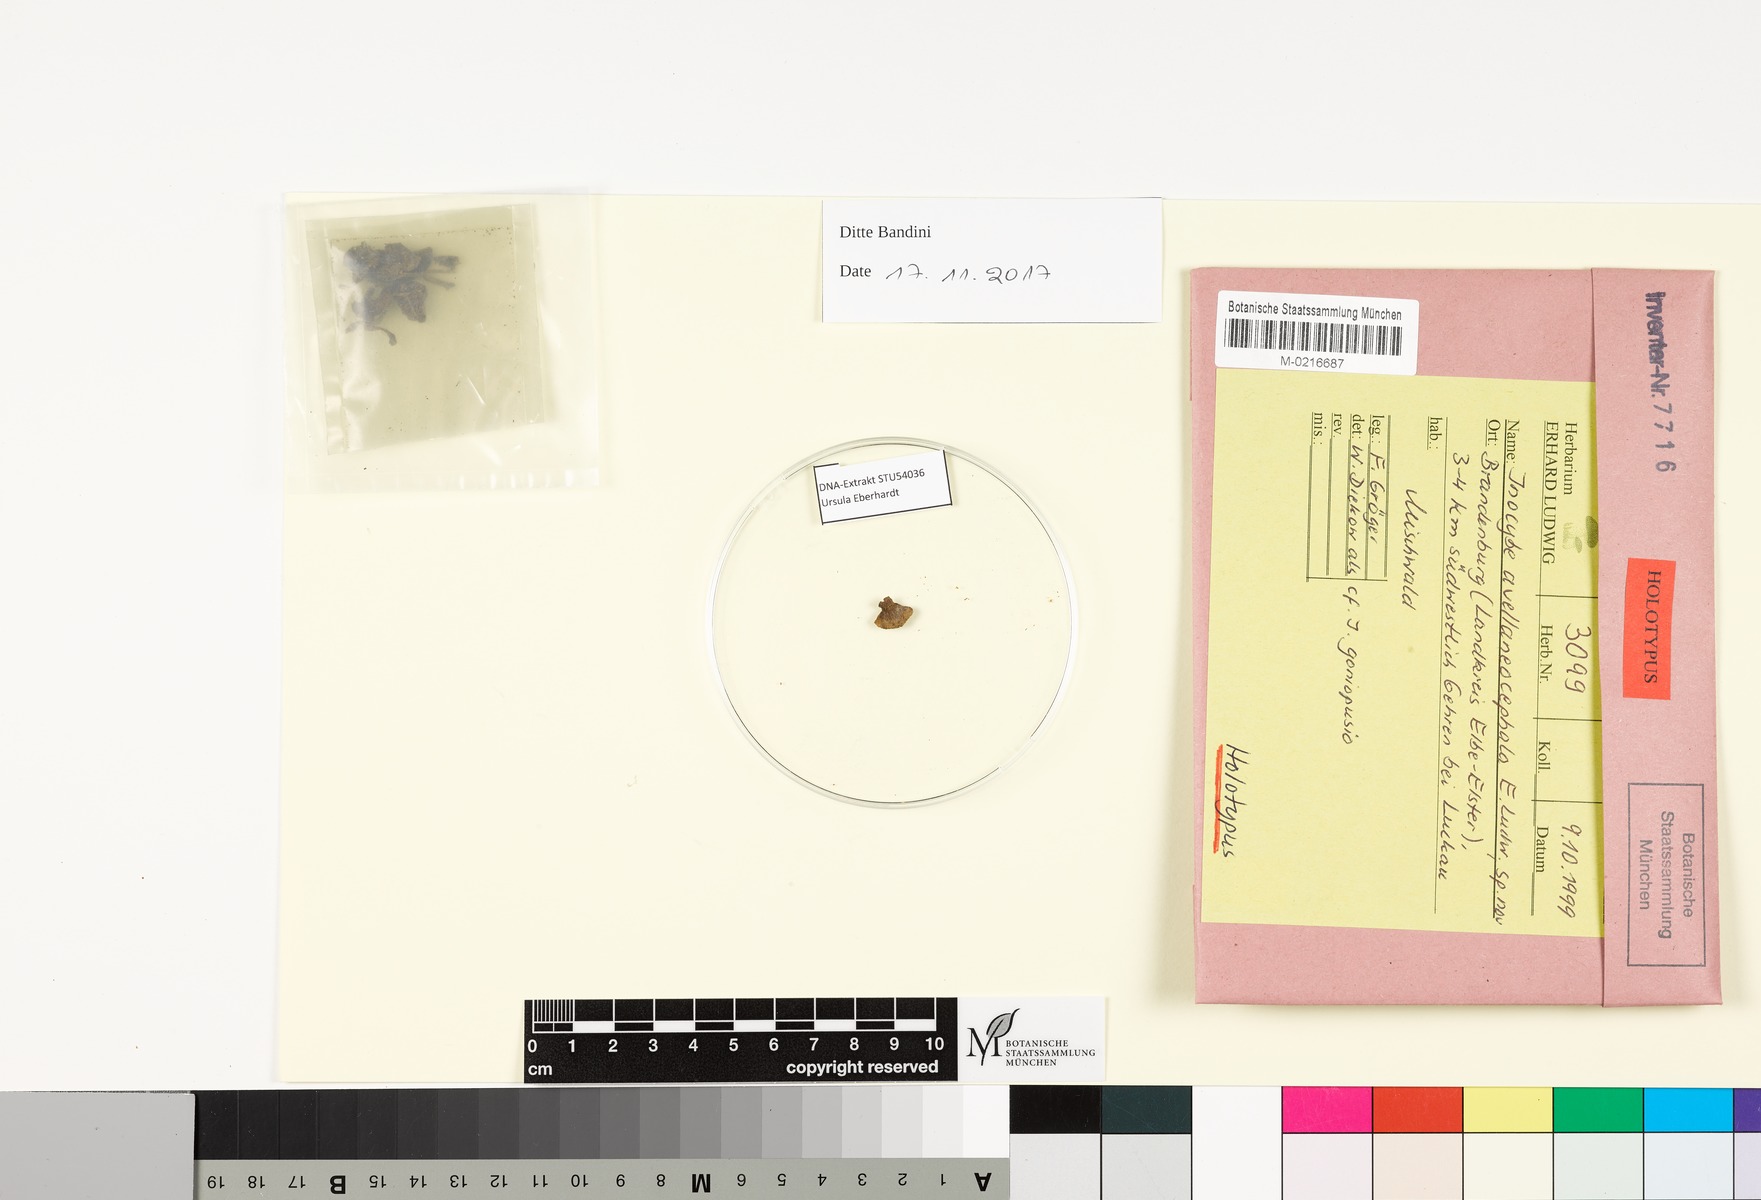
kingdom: Fungi
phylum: Basidiomycota
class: Agaricomycetes
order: Agaricales
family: Inocybaceae
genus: Inocybe
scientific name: Inocybe avellaneocephala
